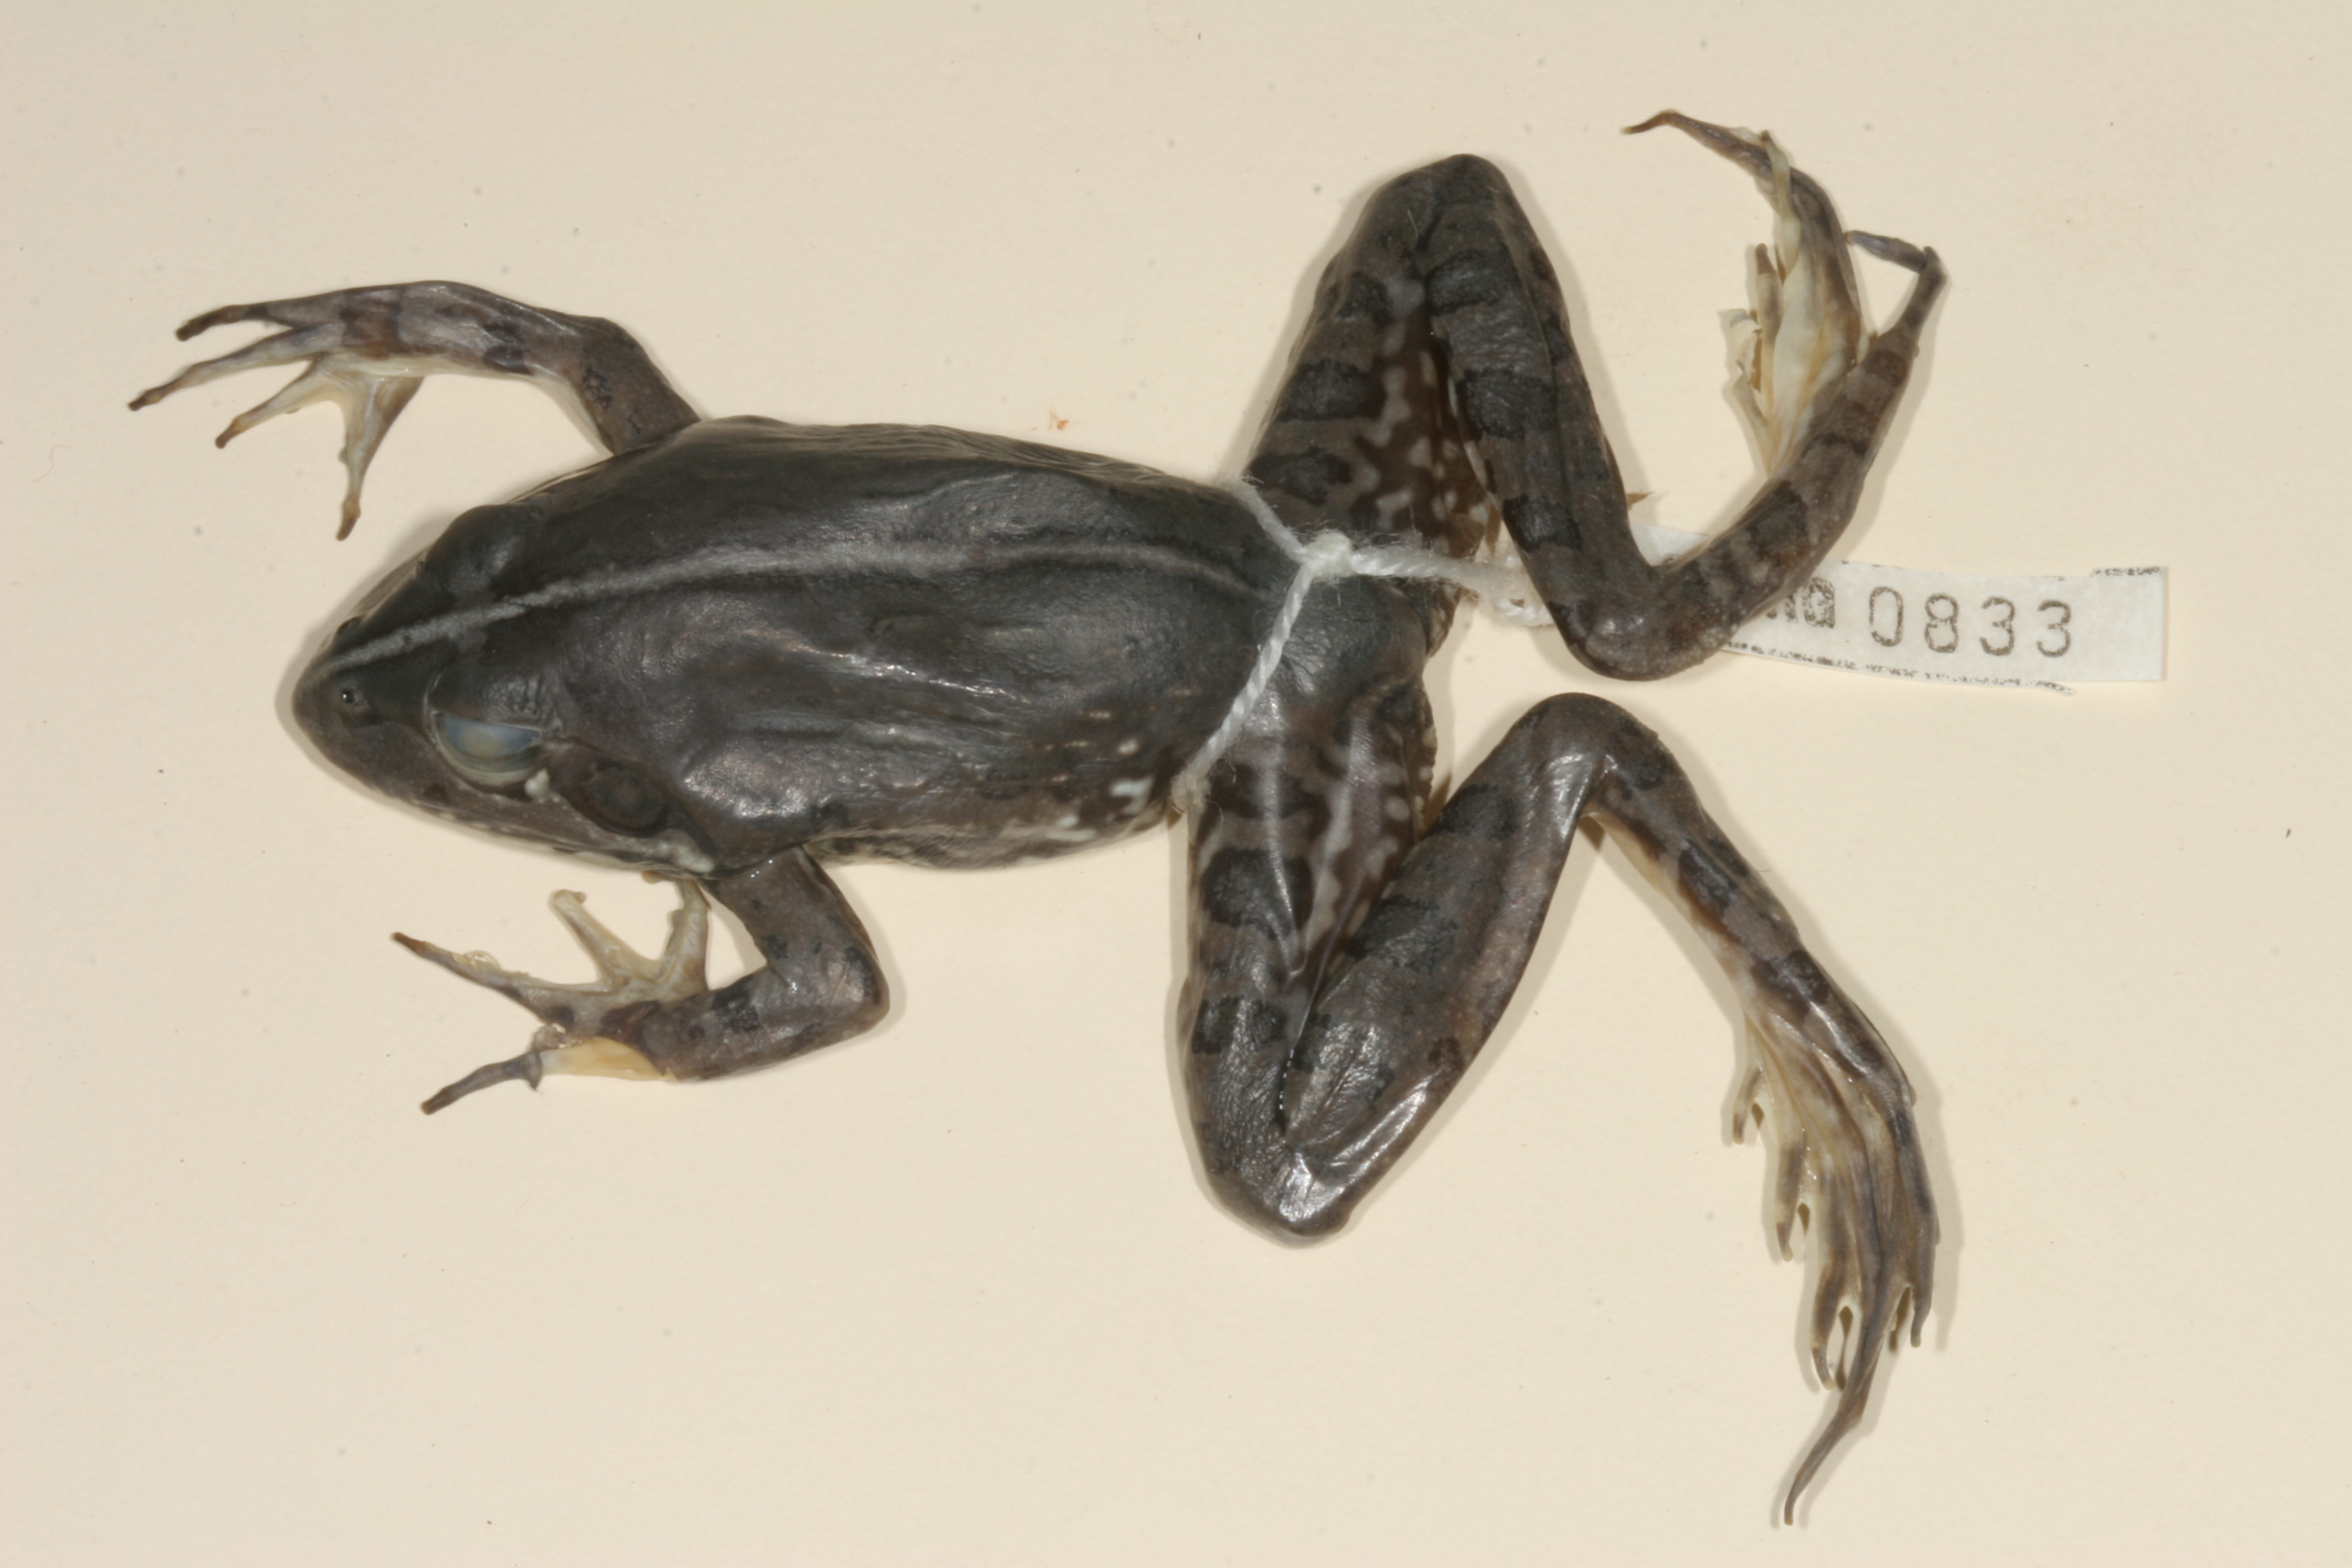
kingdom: Animalia
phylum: Chordata
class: Amphibia
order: Anura
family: Pyxicephalidae
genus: Amietia
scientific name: Amietia fuscigula
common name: Cape rana
